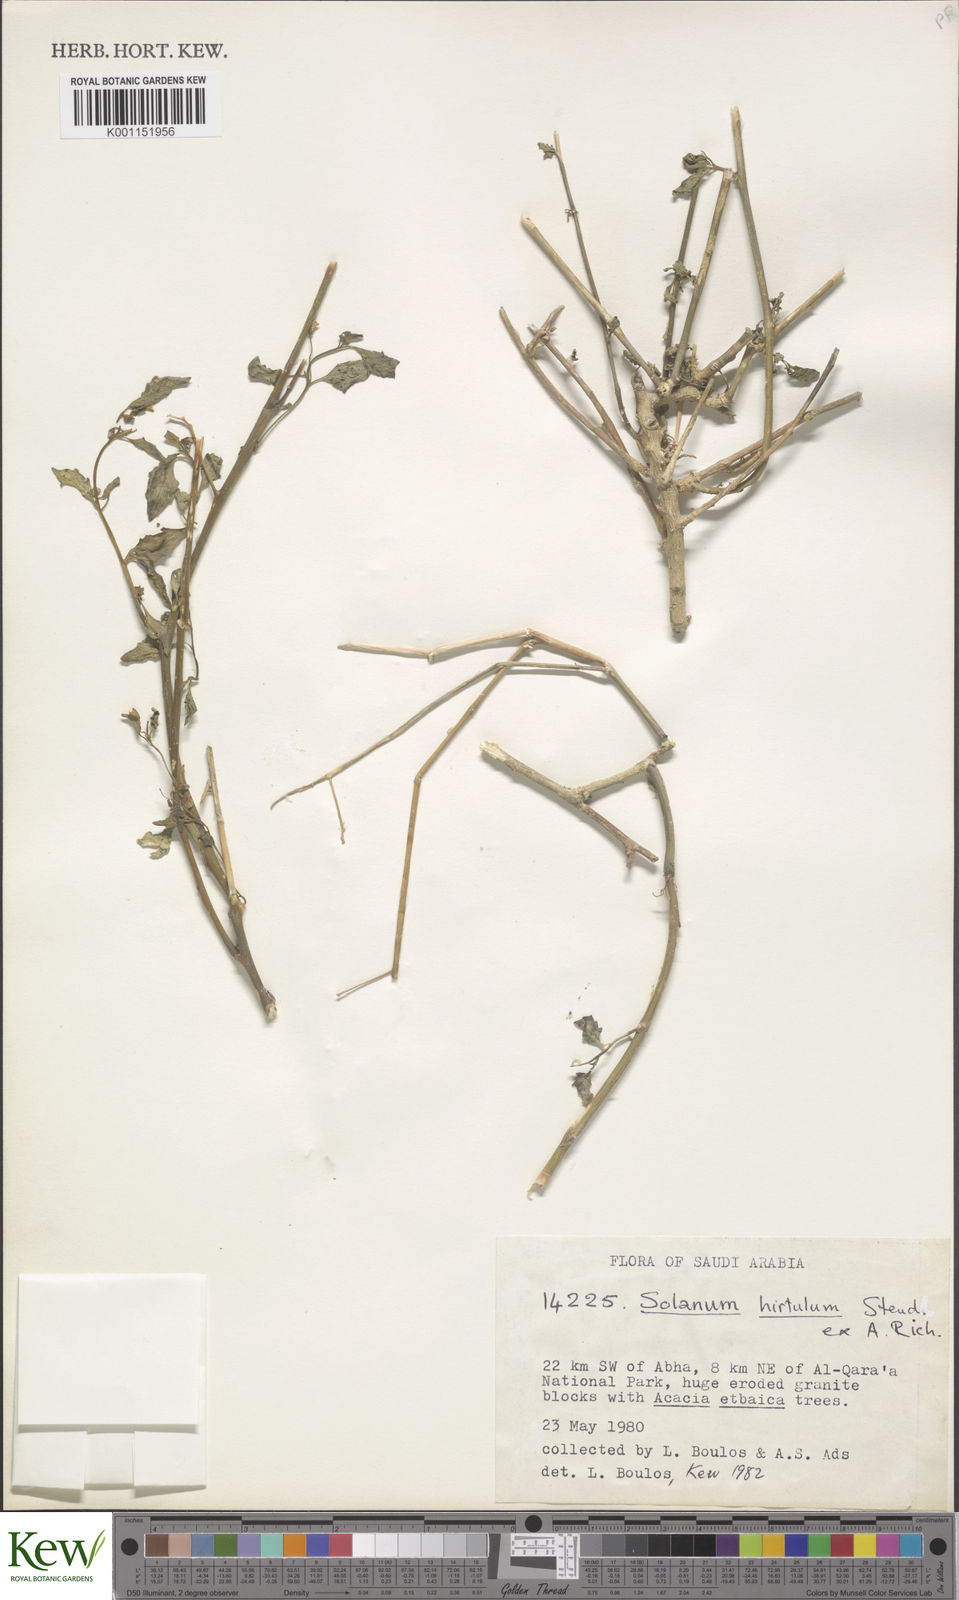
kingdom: Plantae
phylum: Tracheophyta
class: Magnoliopsida
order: Solanales
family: Solanaceae
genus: Solanum
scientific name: Solanum hirtulum
